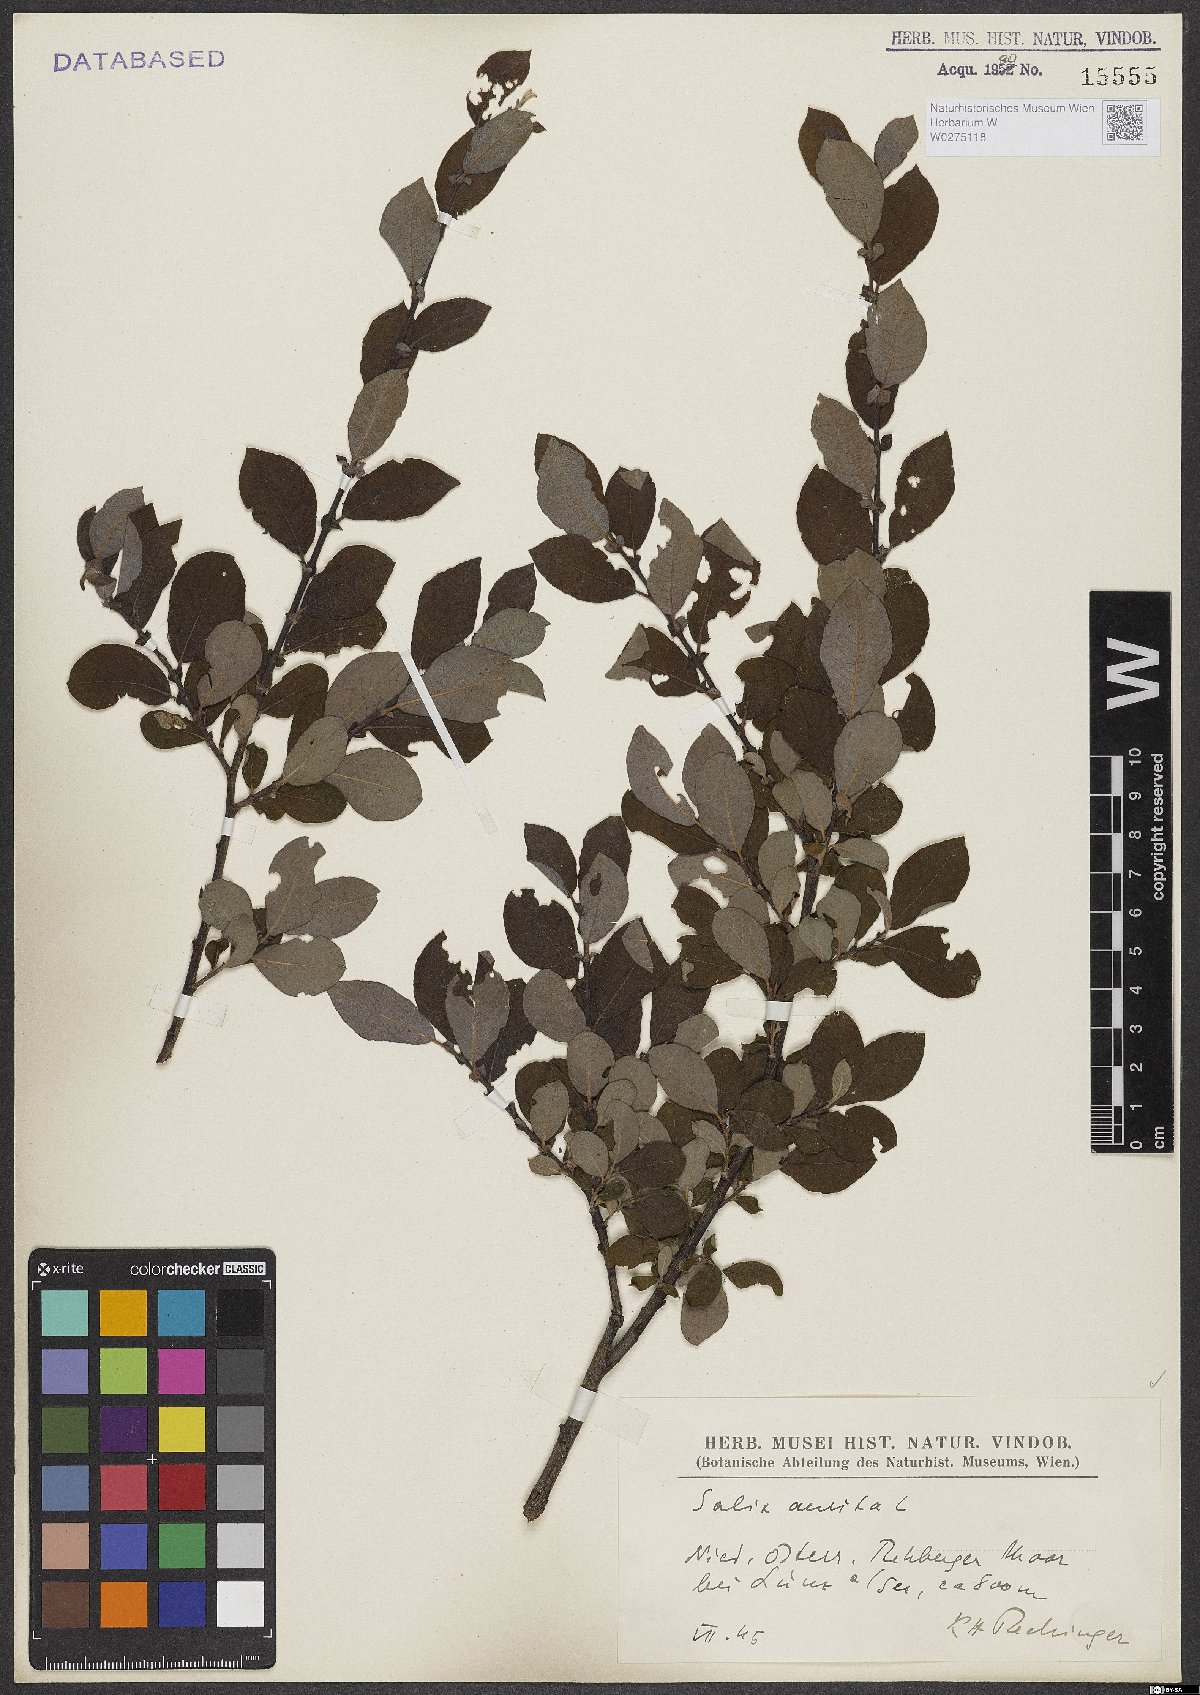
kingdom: Plantae
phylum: Tracheophyta
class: Magnoliopsida
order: Malpighiales
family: Salicaceae
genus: Salix
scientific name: Salix aurita
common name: Eared willow
